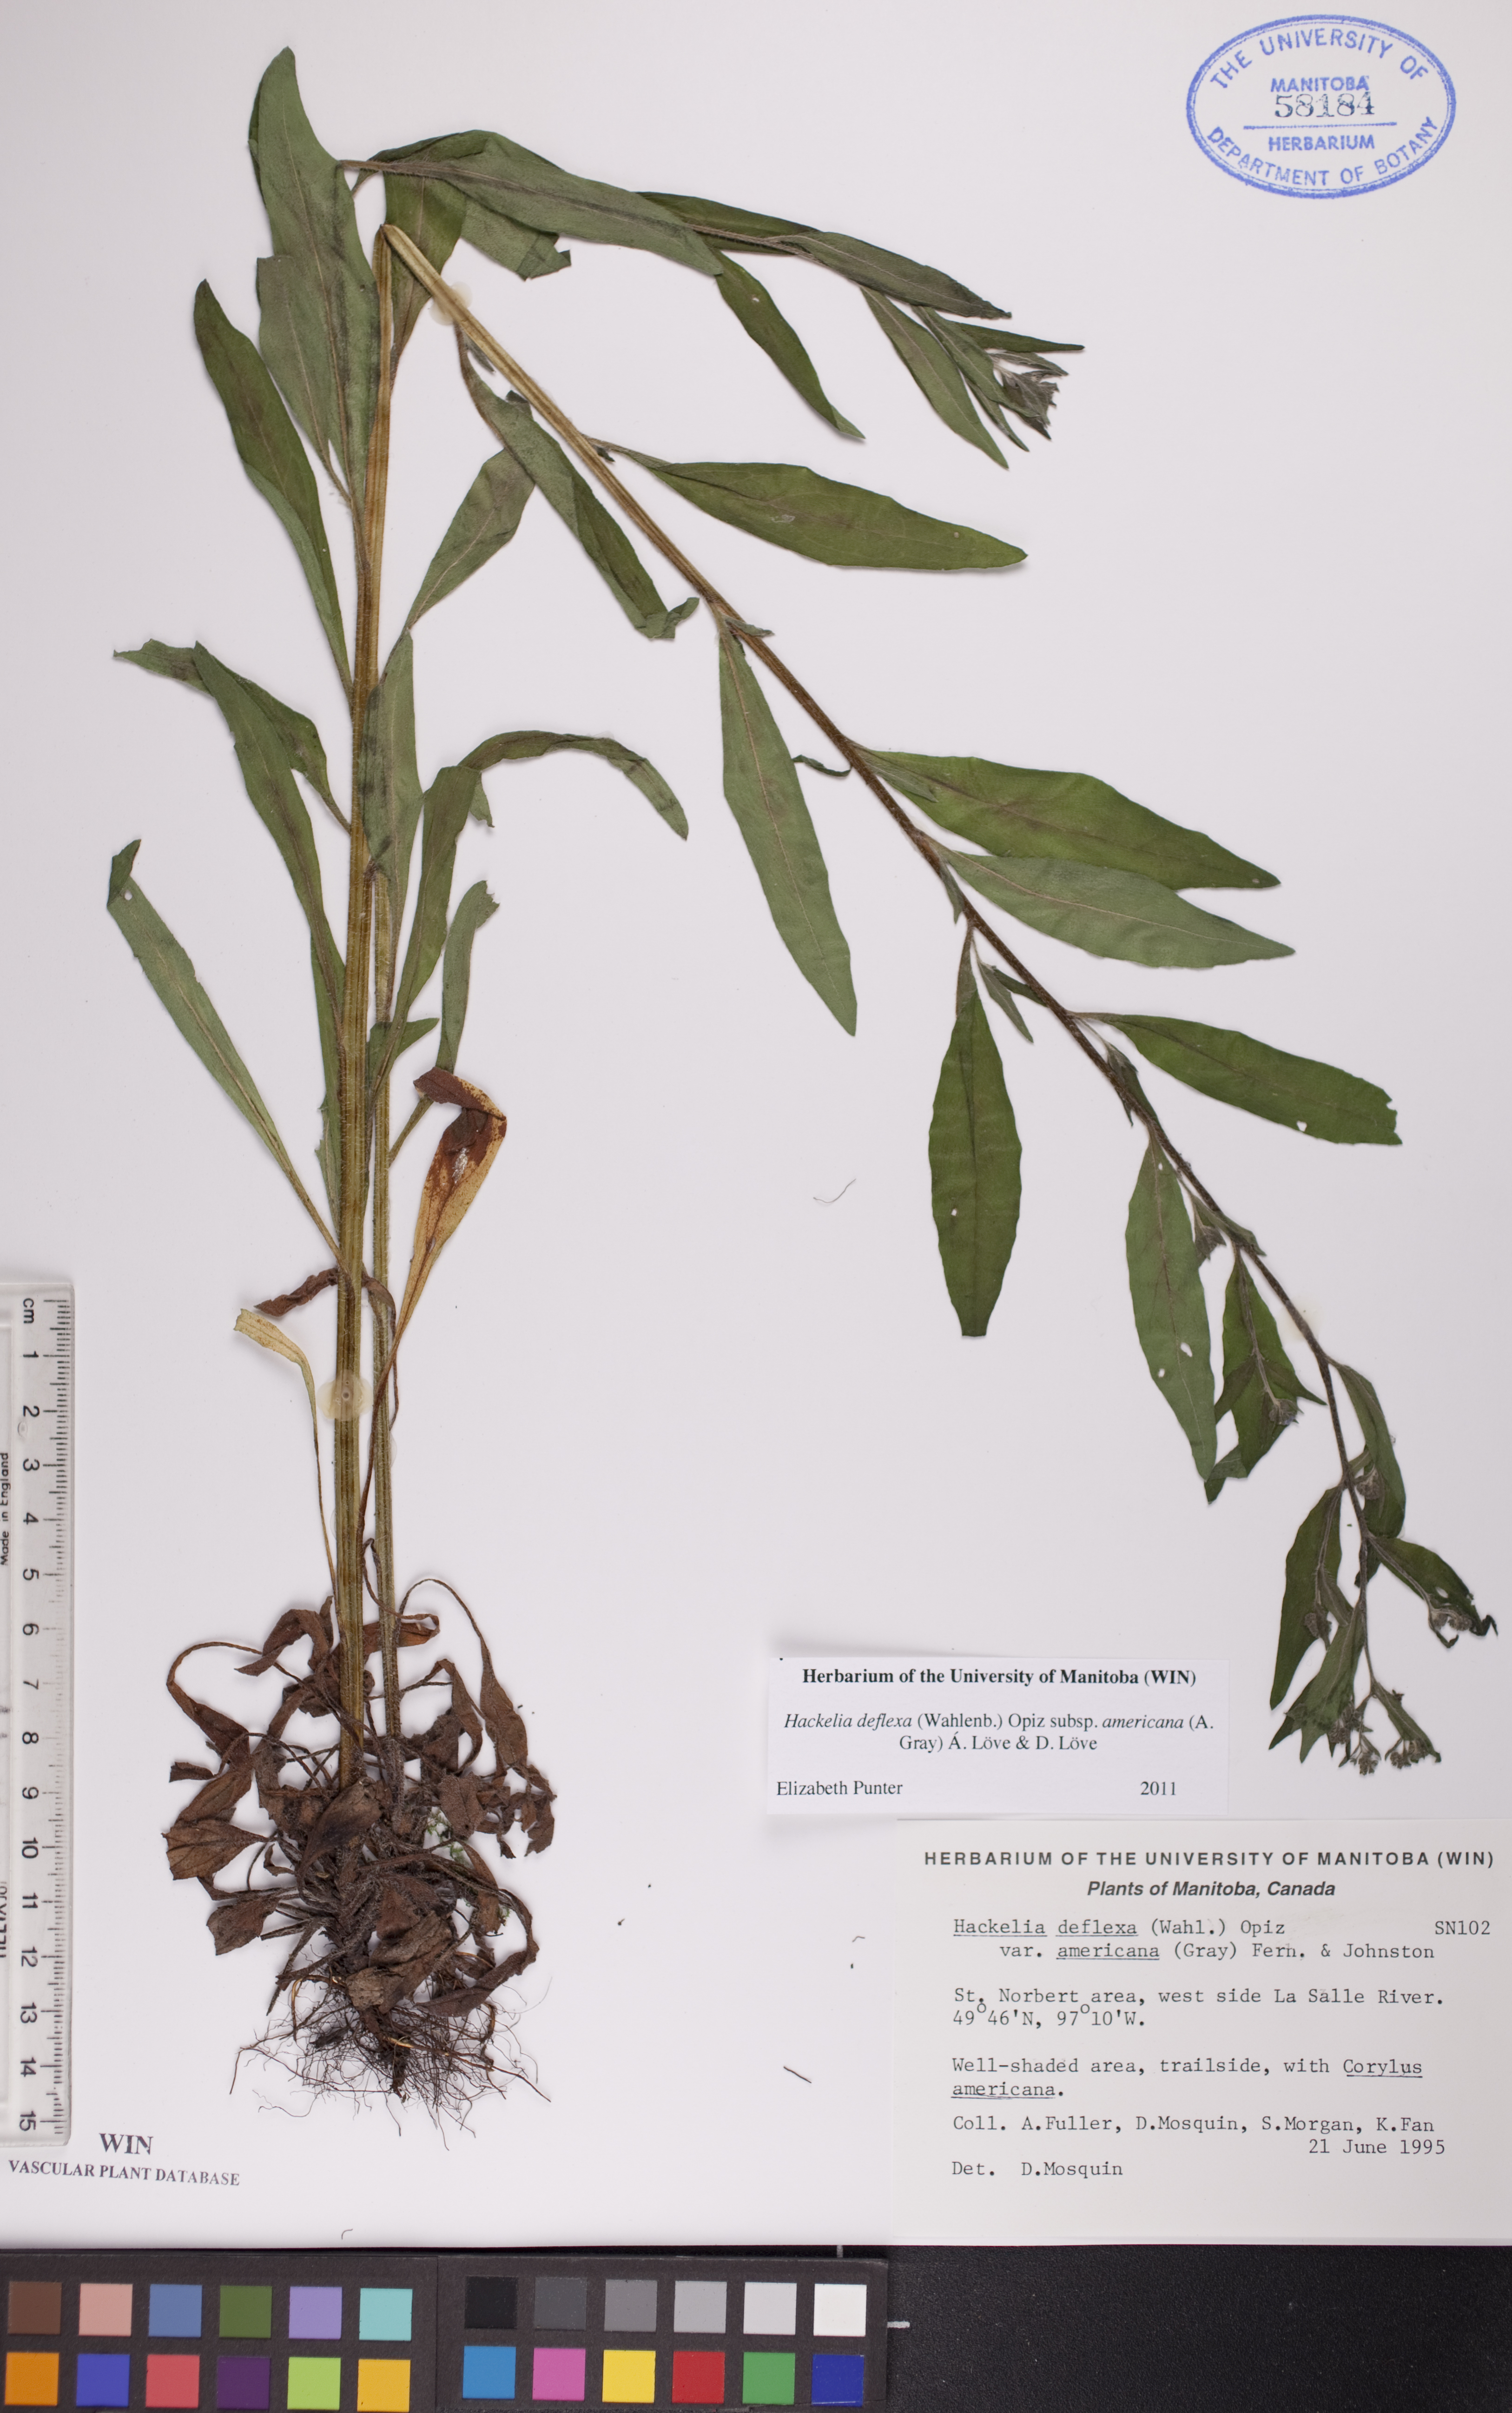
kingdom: Plantae
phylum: Tracheophyta
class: Magnoliopsida
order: Boraginales
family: Boraginaceae
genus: Hackelia
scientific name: Hackelia deflexa
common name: Nodding stickseed
